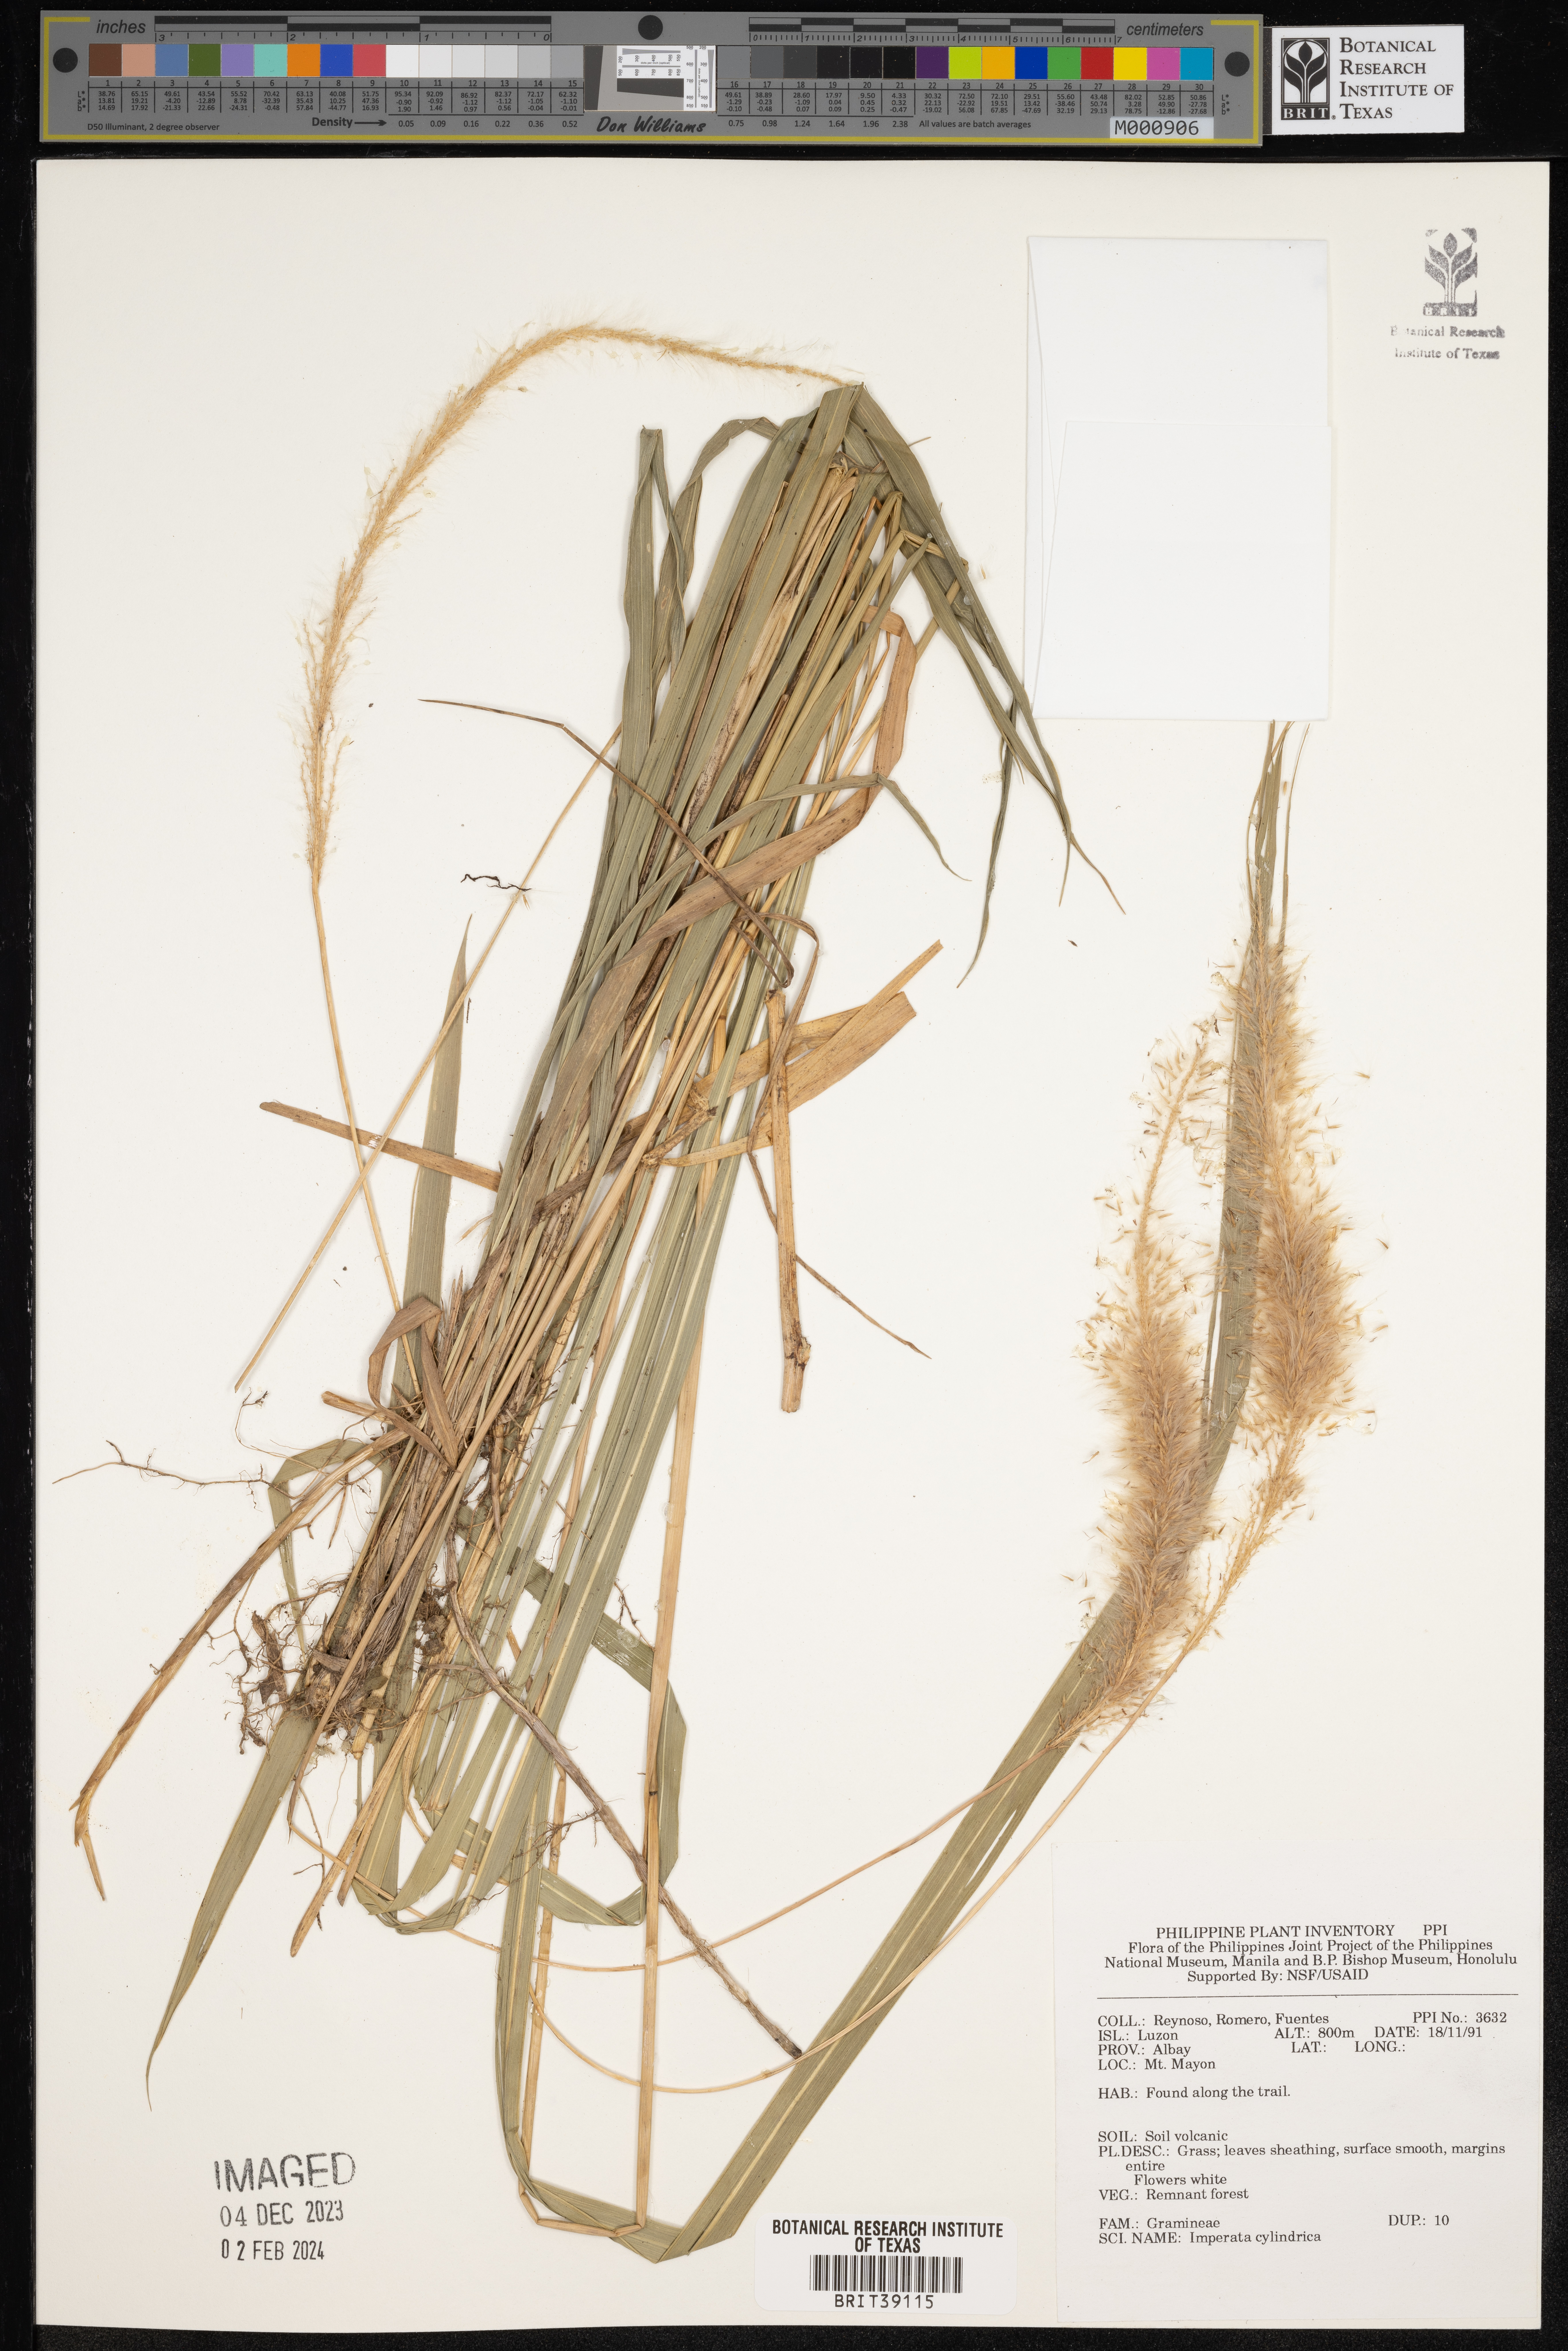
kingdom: Plantae
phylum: Tracheophyta
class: Liliopsida
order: Poales
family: Poaceae
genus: Imperata
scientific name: Imperata cylindrica
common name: Cogongrass
